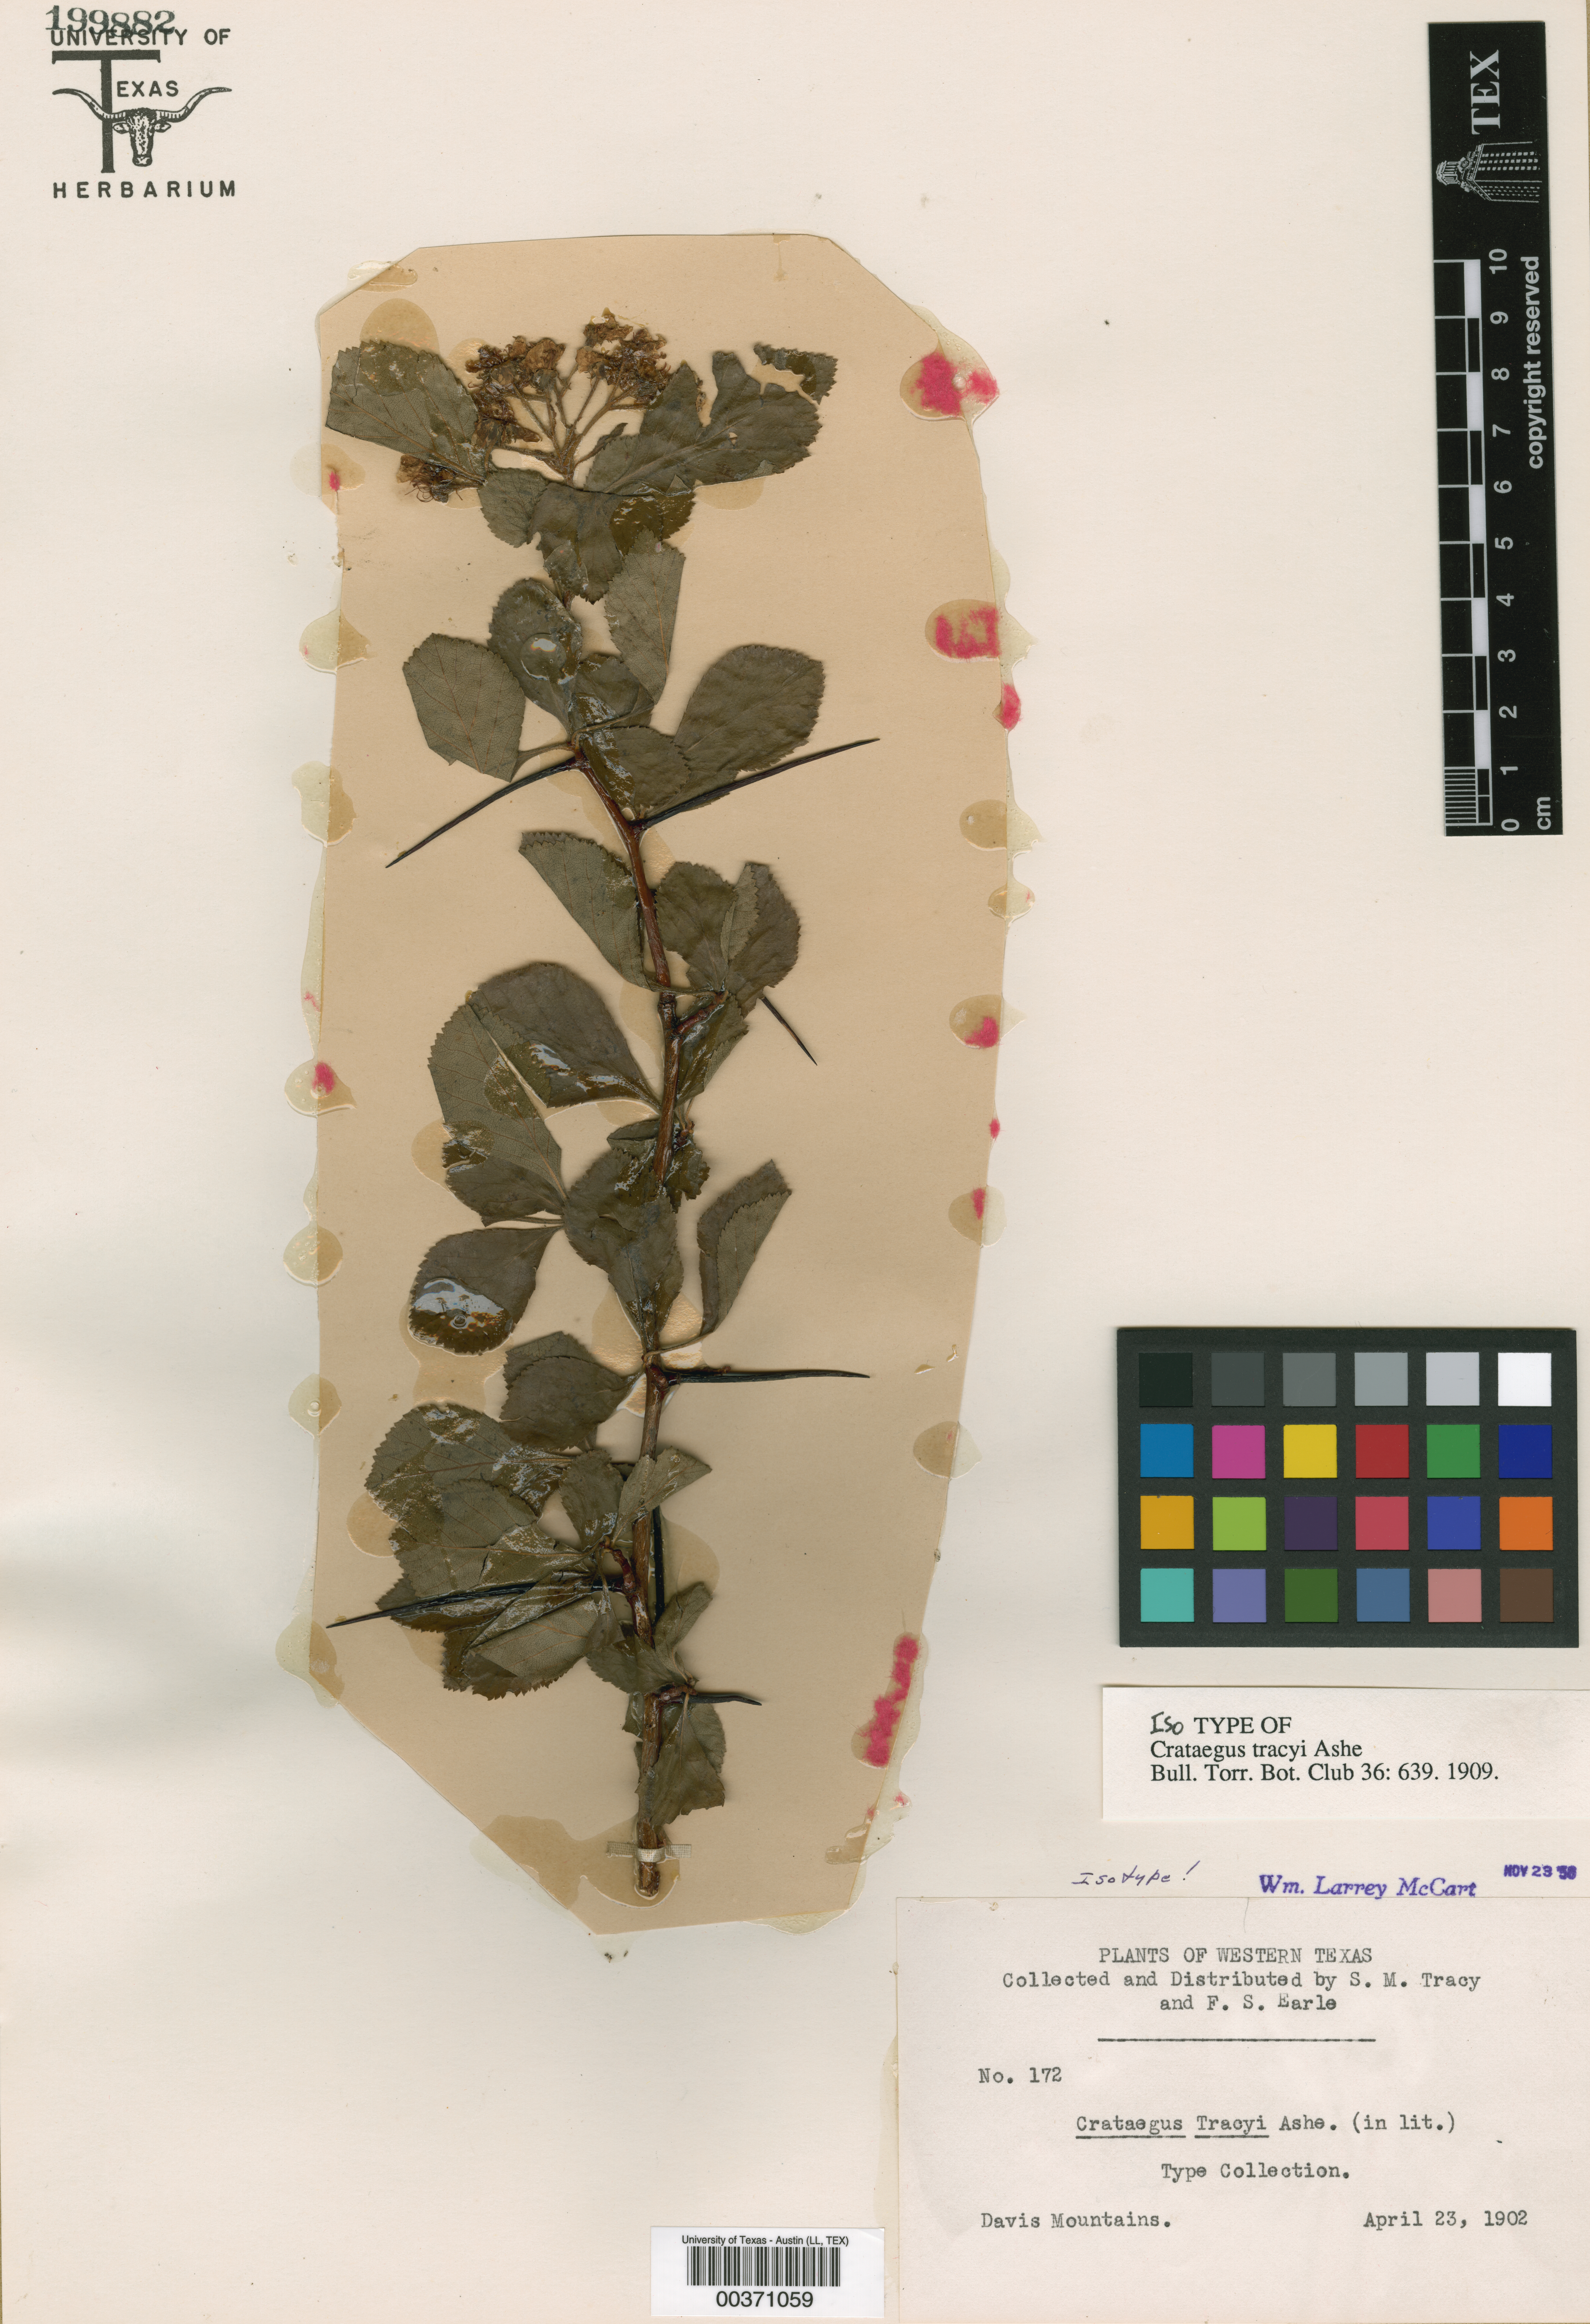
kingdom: Plantae
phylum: Tracheophyta
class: Magnoliopsida
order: Rosales
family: Rosaceae
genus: Crataegus
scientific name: Crataegus tracyi
